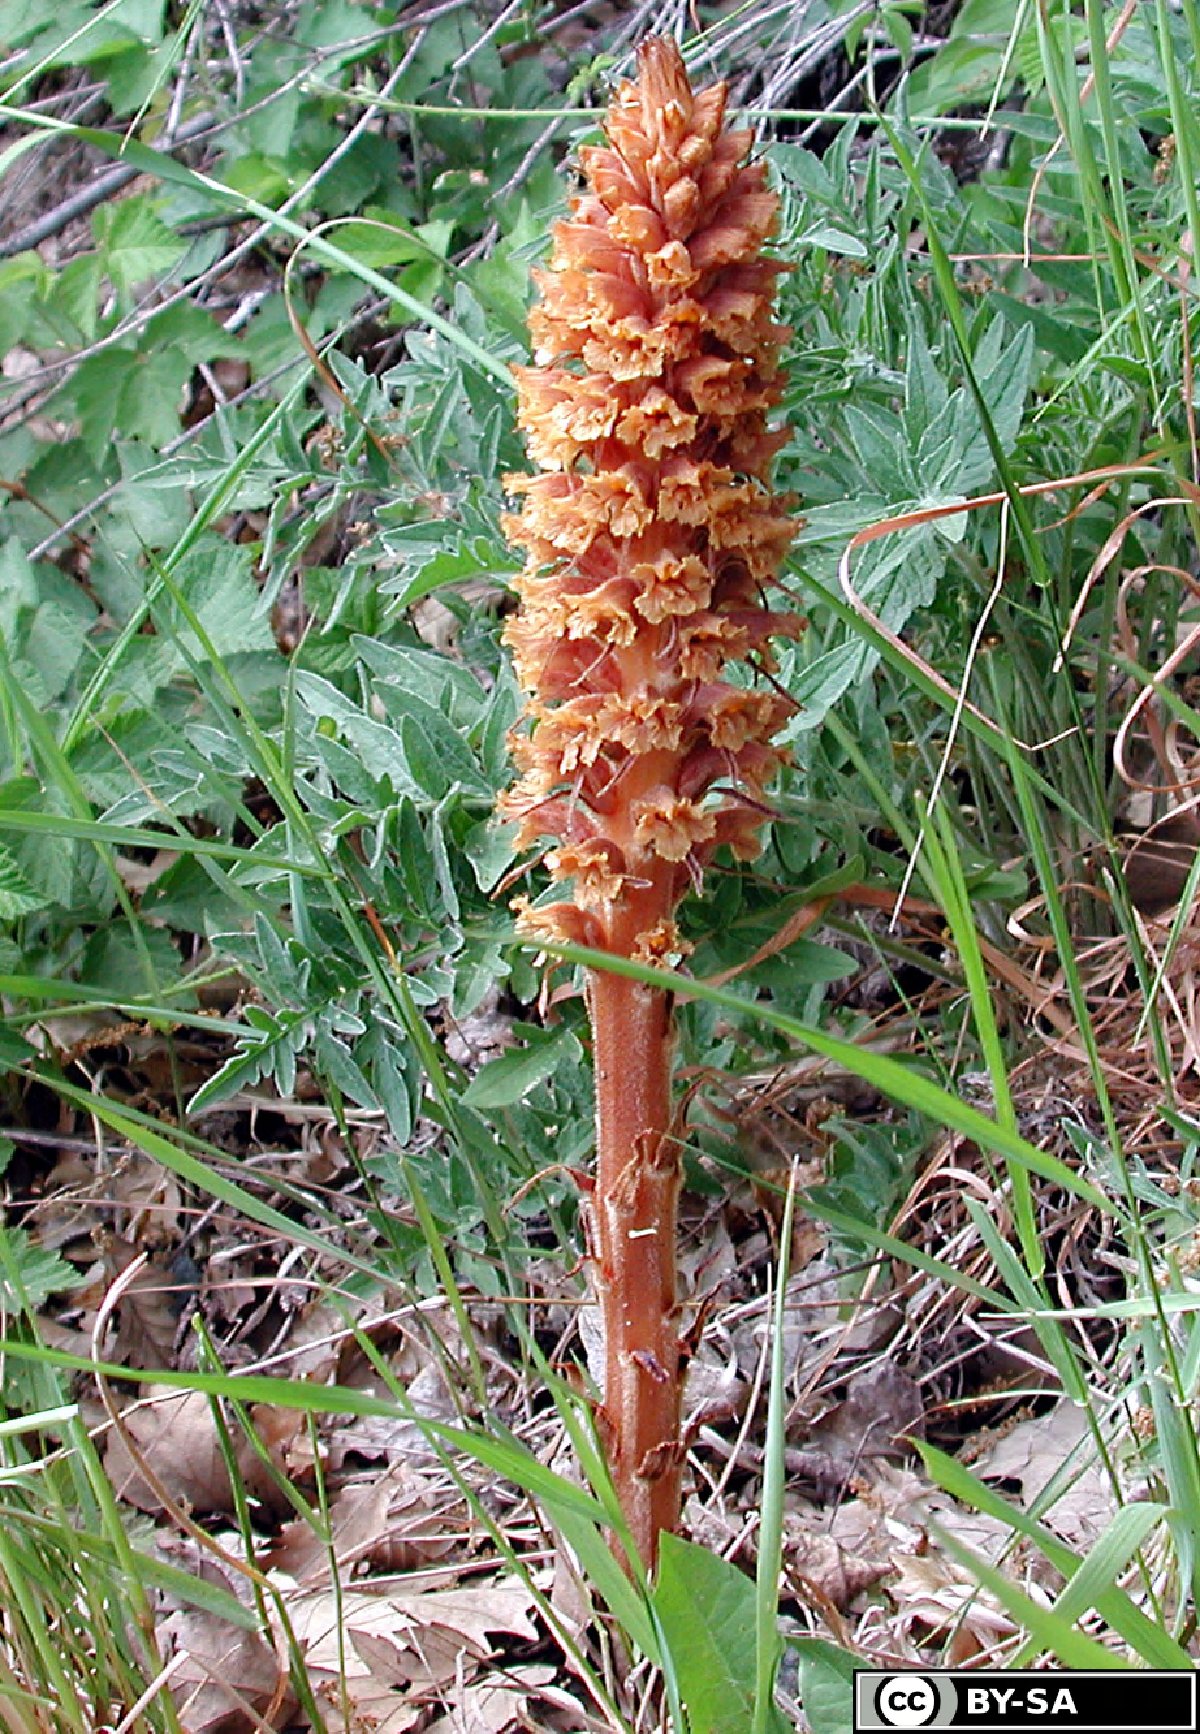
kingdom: Plantae
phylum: Tracheophyta
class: Magnoliopsida
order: Lamiales
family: Orobanchaceae
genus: Orobanche
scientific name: Orobanche elatior
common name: Knapweed broomrape
